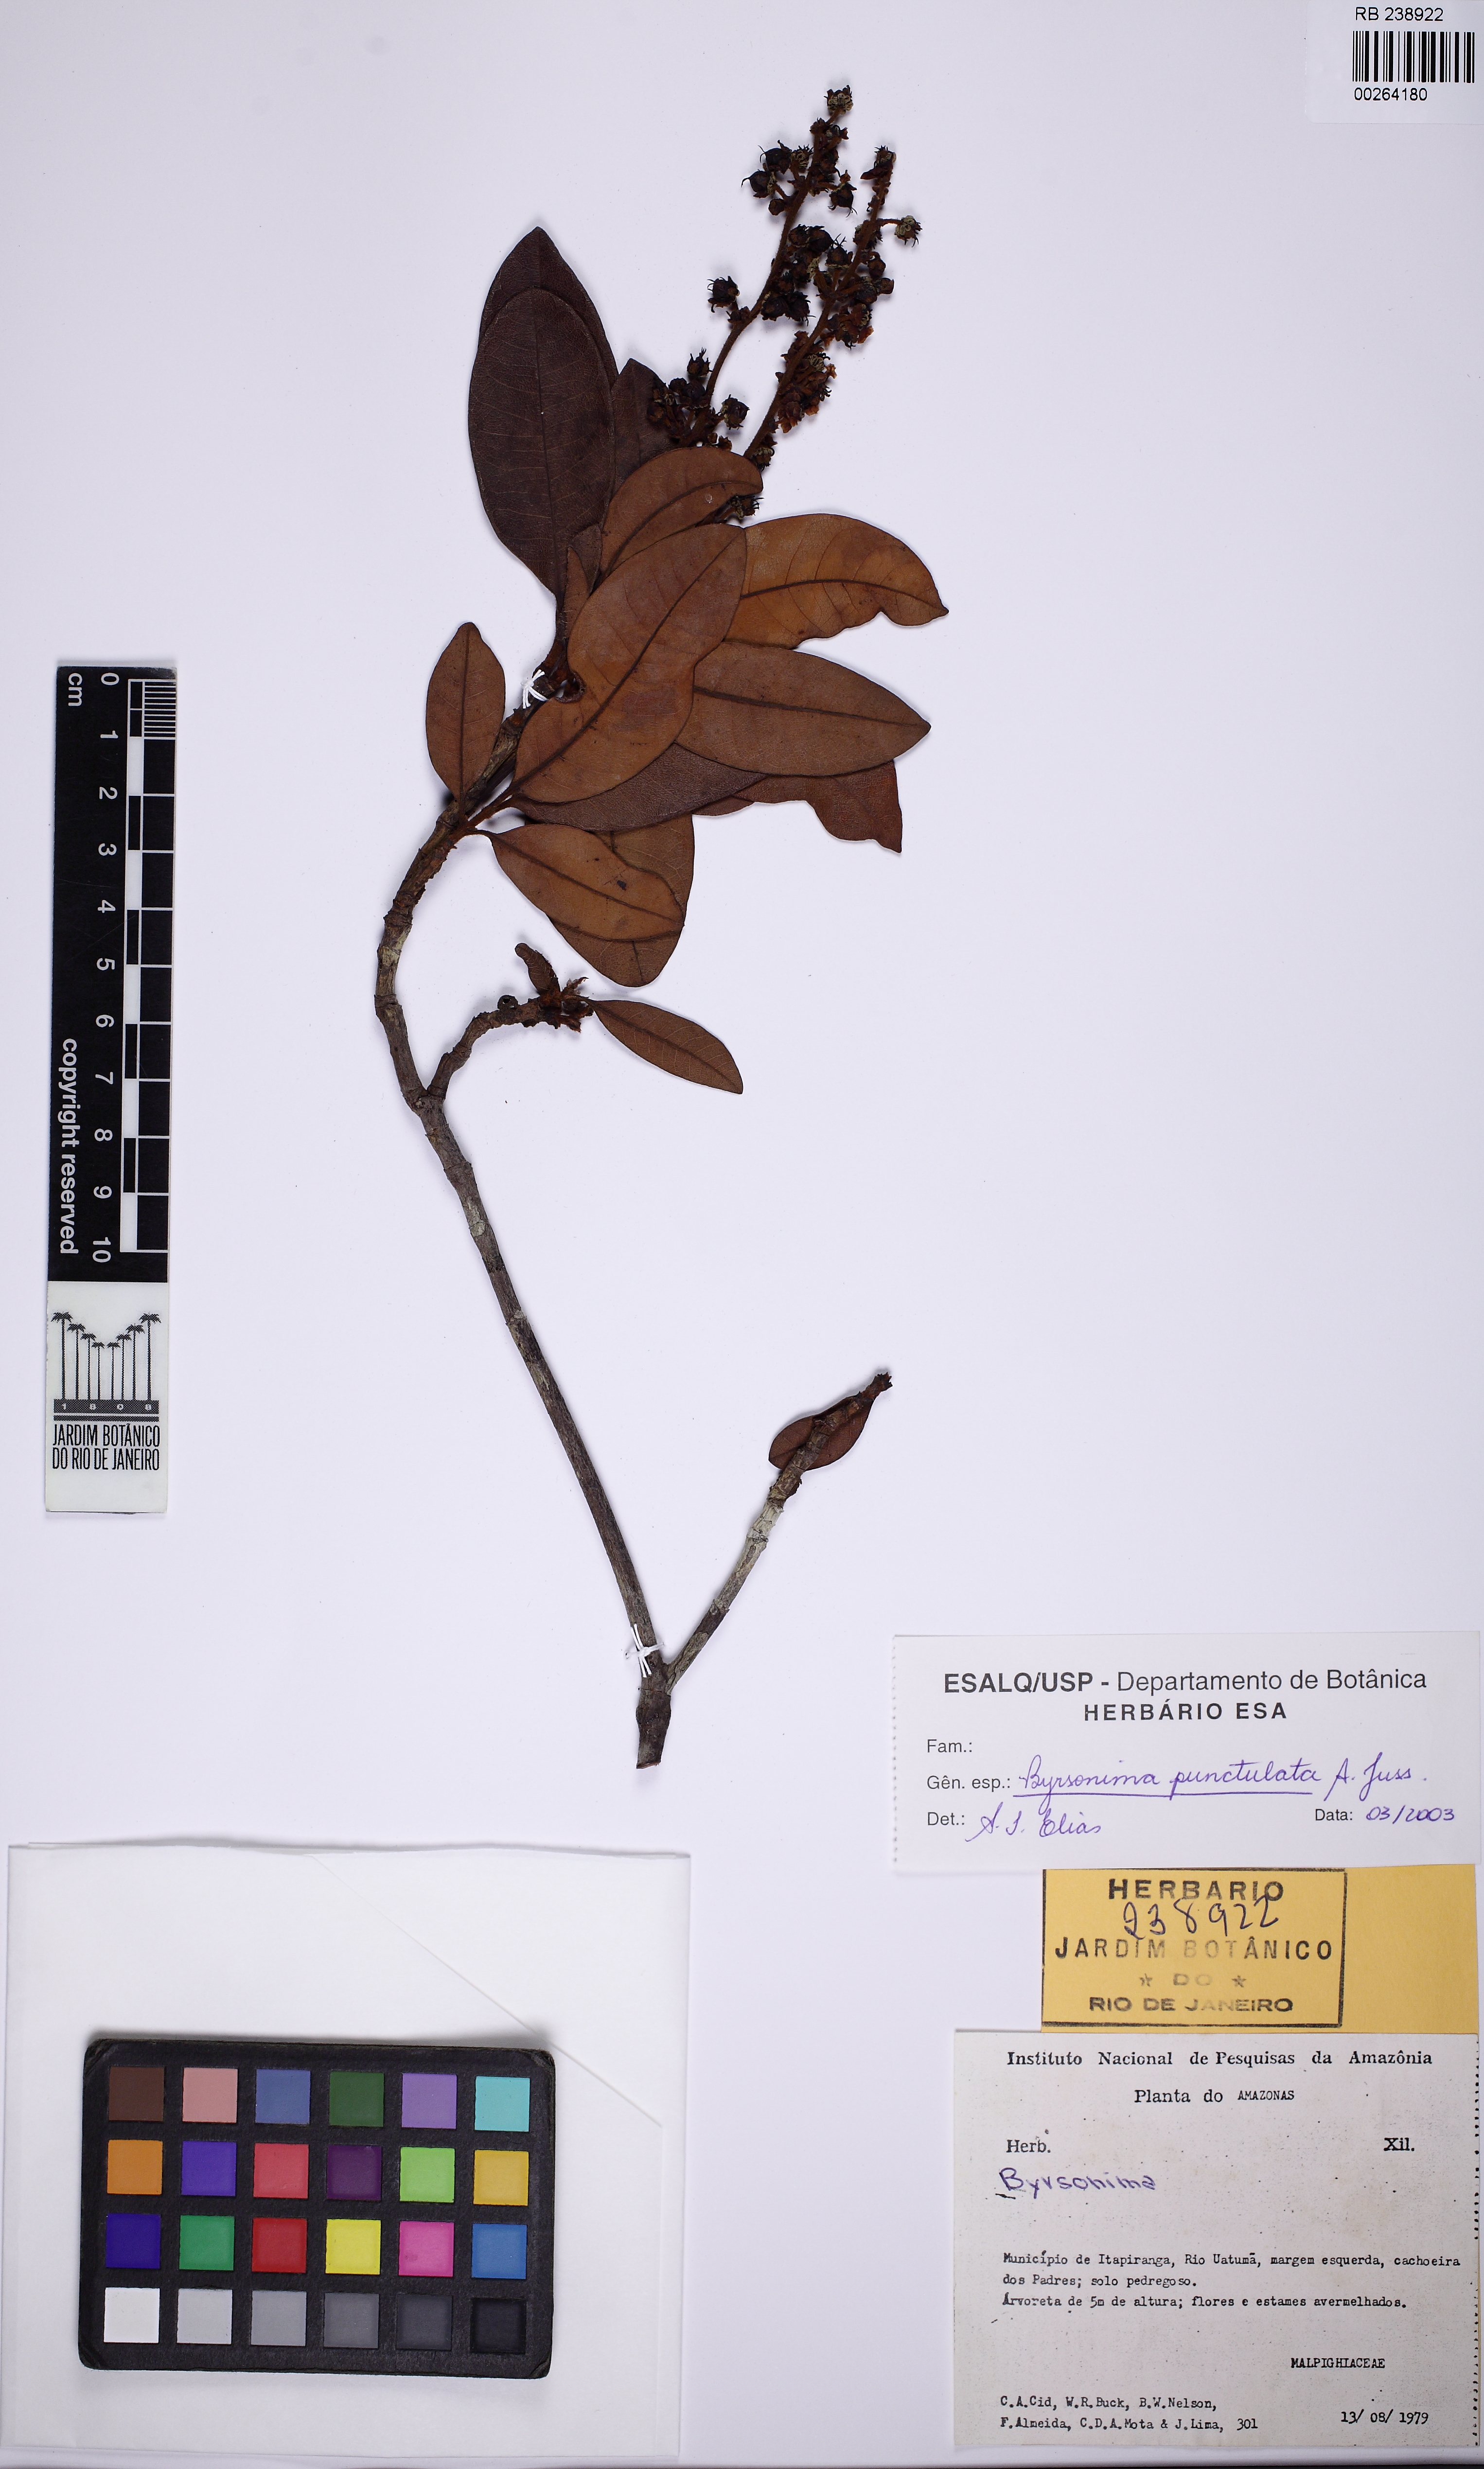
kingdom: Plantae
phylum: Tracheophyta
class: Magnoliopsida
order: Malpighiales
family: Malpighiaceae
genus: Byrsonima
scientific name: Byrsonima punctulata
